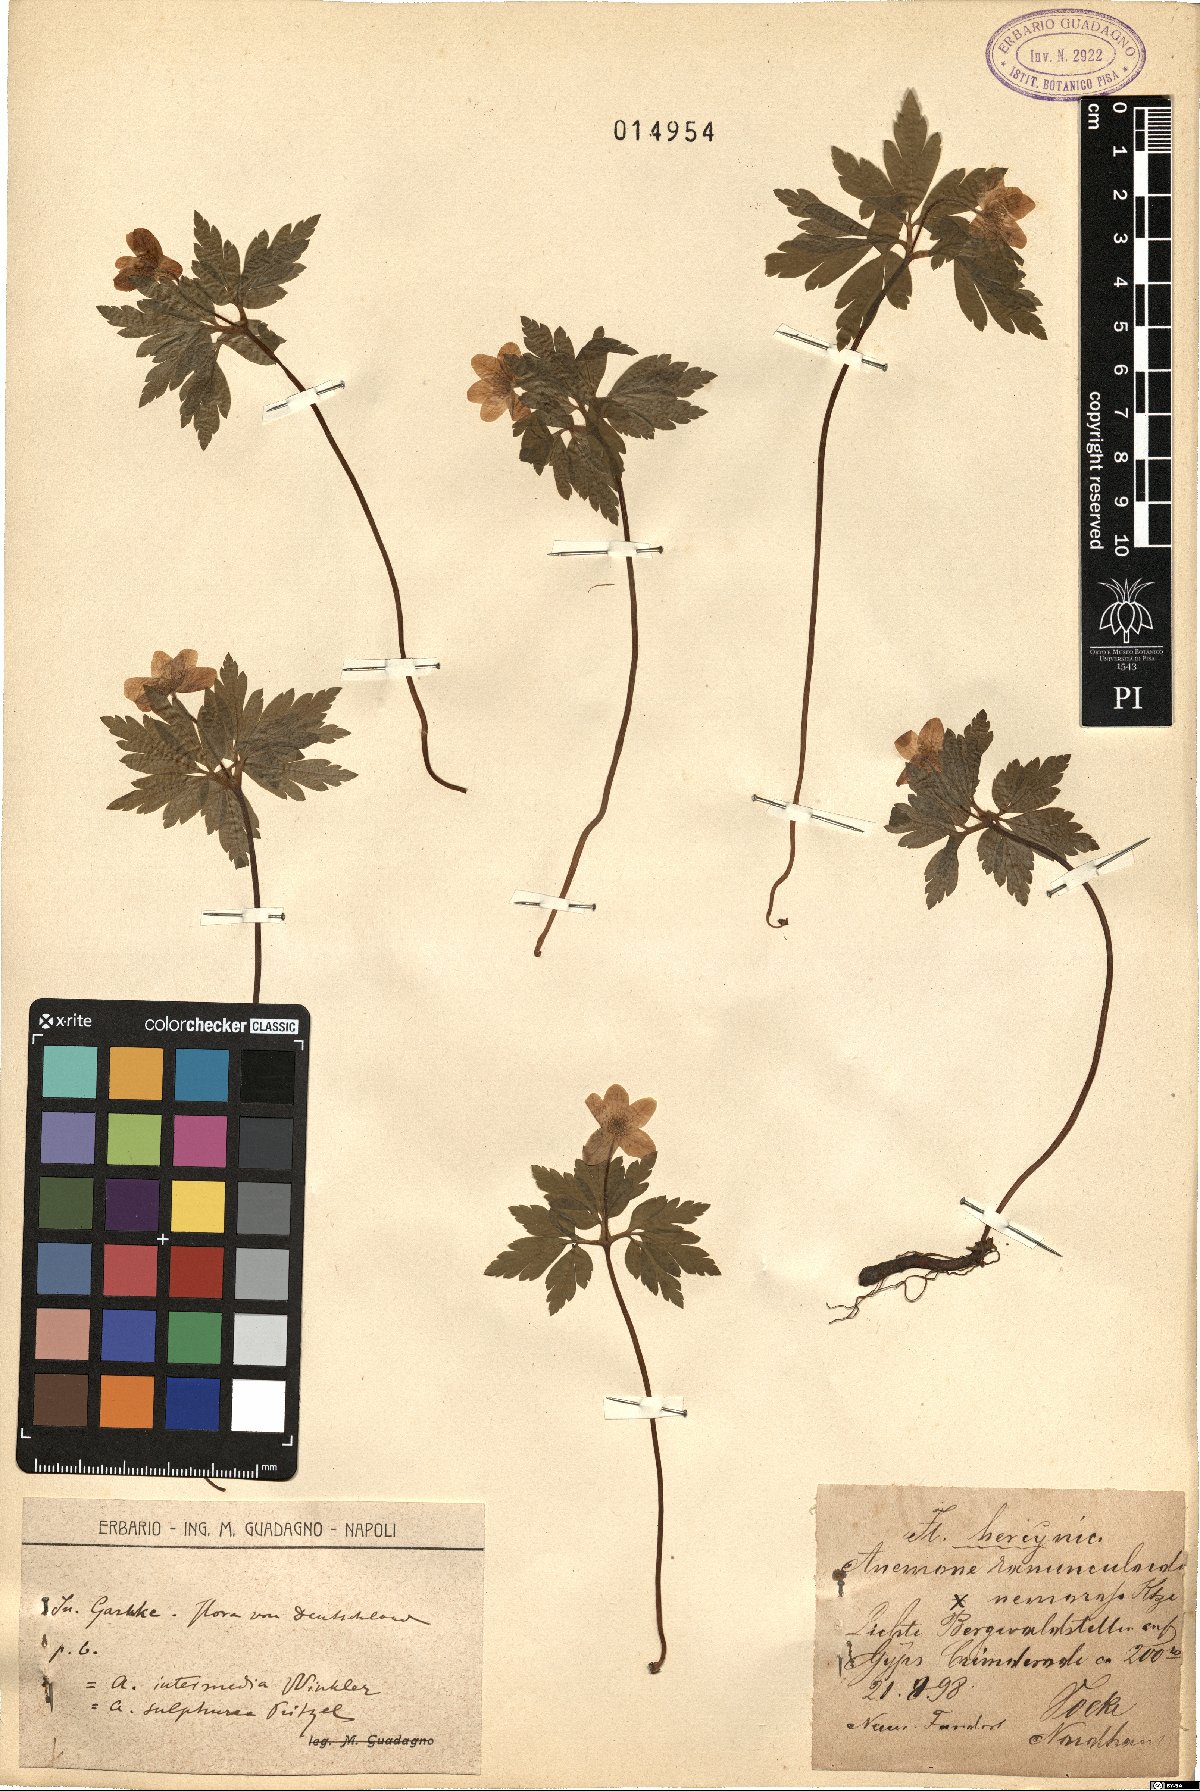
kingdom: Plantae
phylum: Tracheophyta
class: Magnoliopsida
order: Ranunculales
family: Ranunculaceae
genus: Anemone
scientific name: Anemone ranunculoides
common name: Yellow anemone
